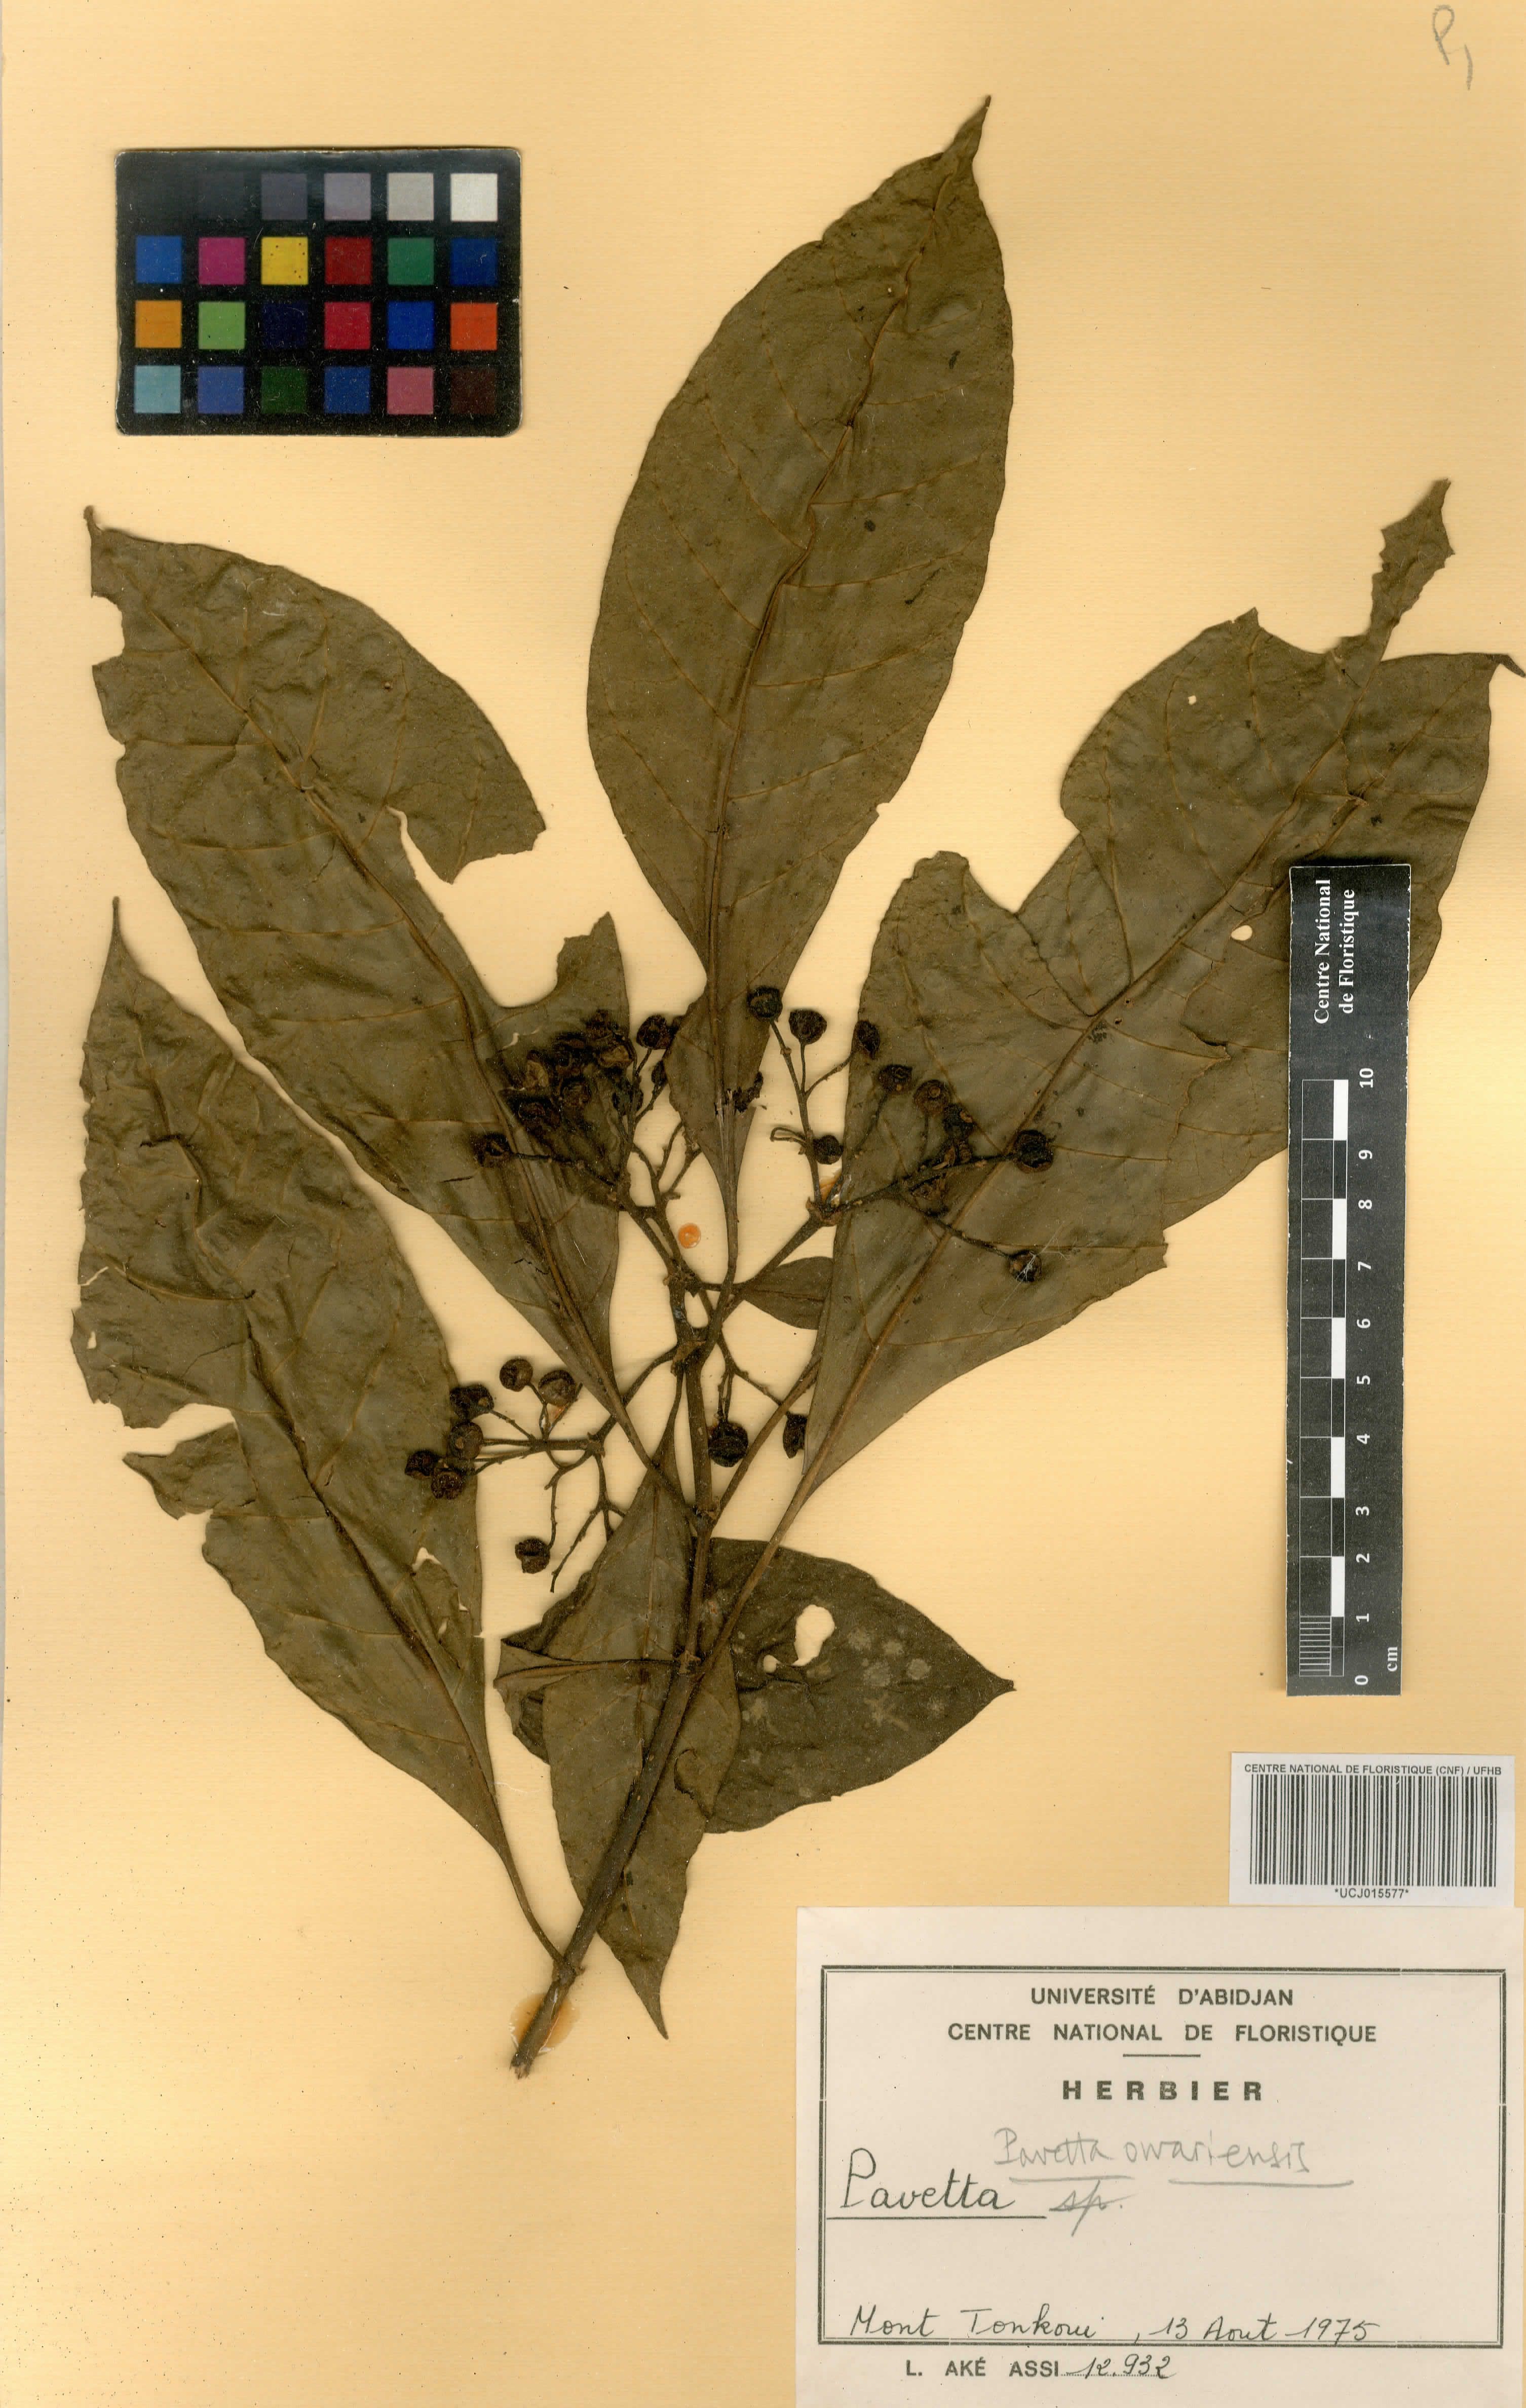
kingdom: Plantae
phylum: Tracheophyta
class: Magnoliopsida
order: Gentianales
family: Rubiaceae
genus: Pavetta
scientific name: Pavetta owariensis
